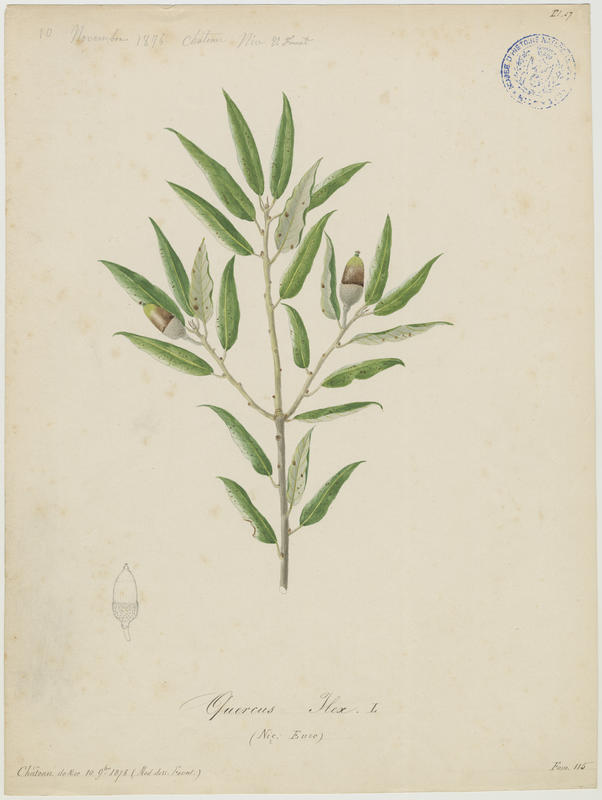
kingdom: Plantae
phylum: Tracheophyta
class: Magnoliopsida
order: Fagales
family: Fagaceae
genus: Quercus
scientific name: Quercus ilex
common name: Evergreen oak
